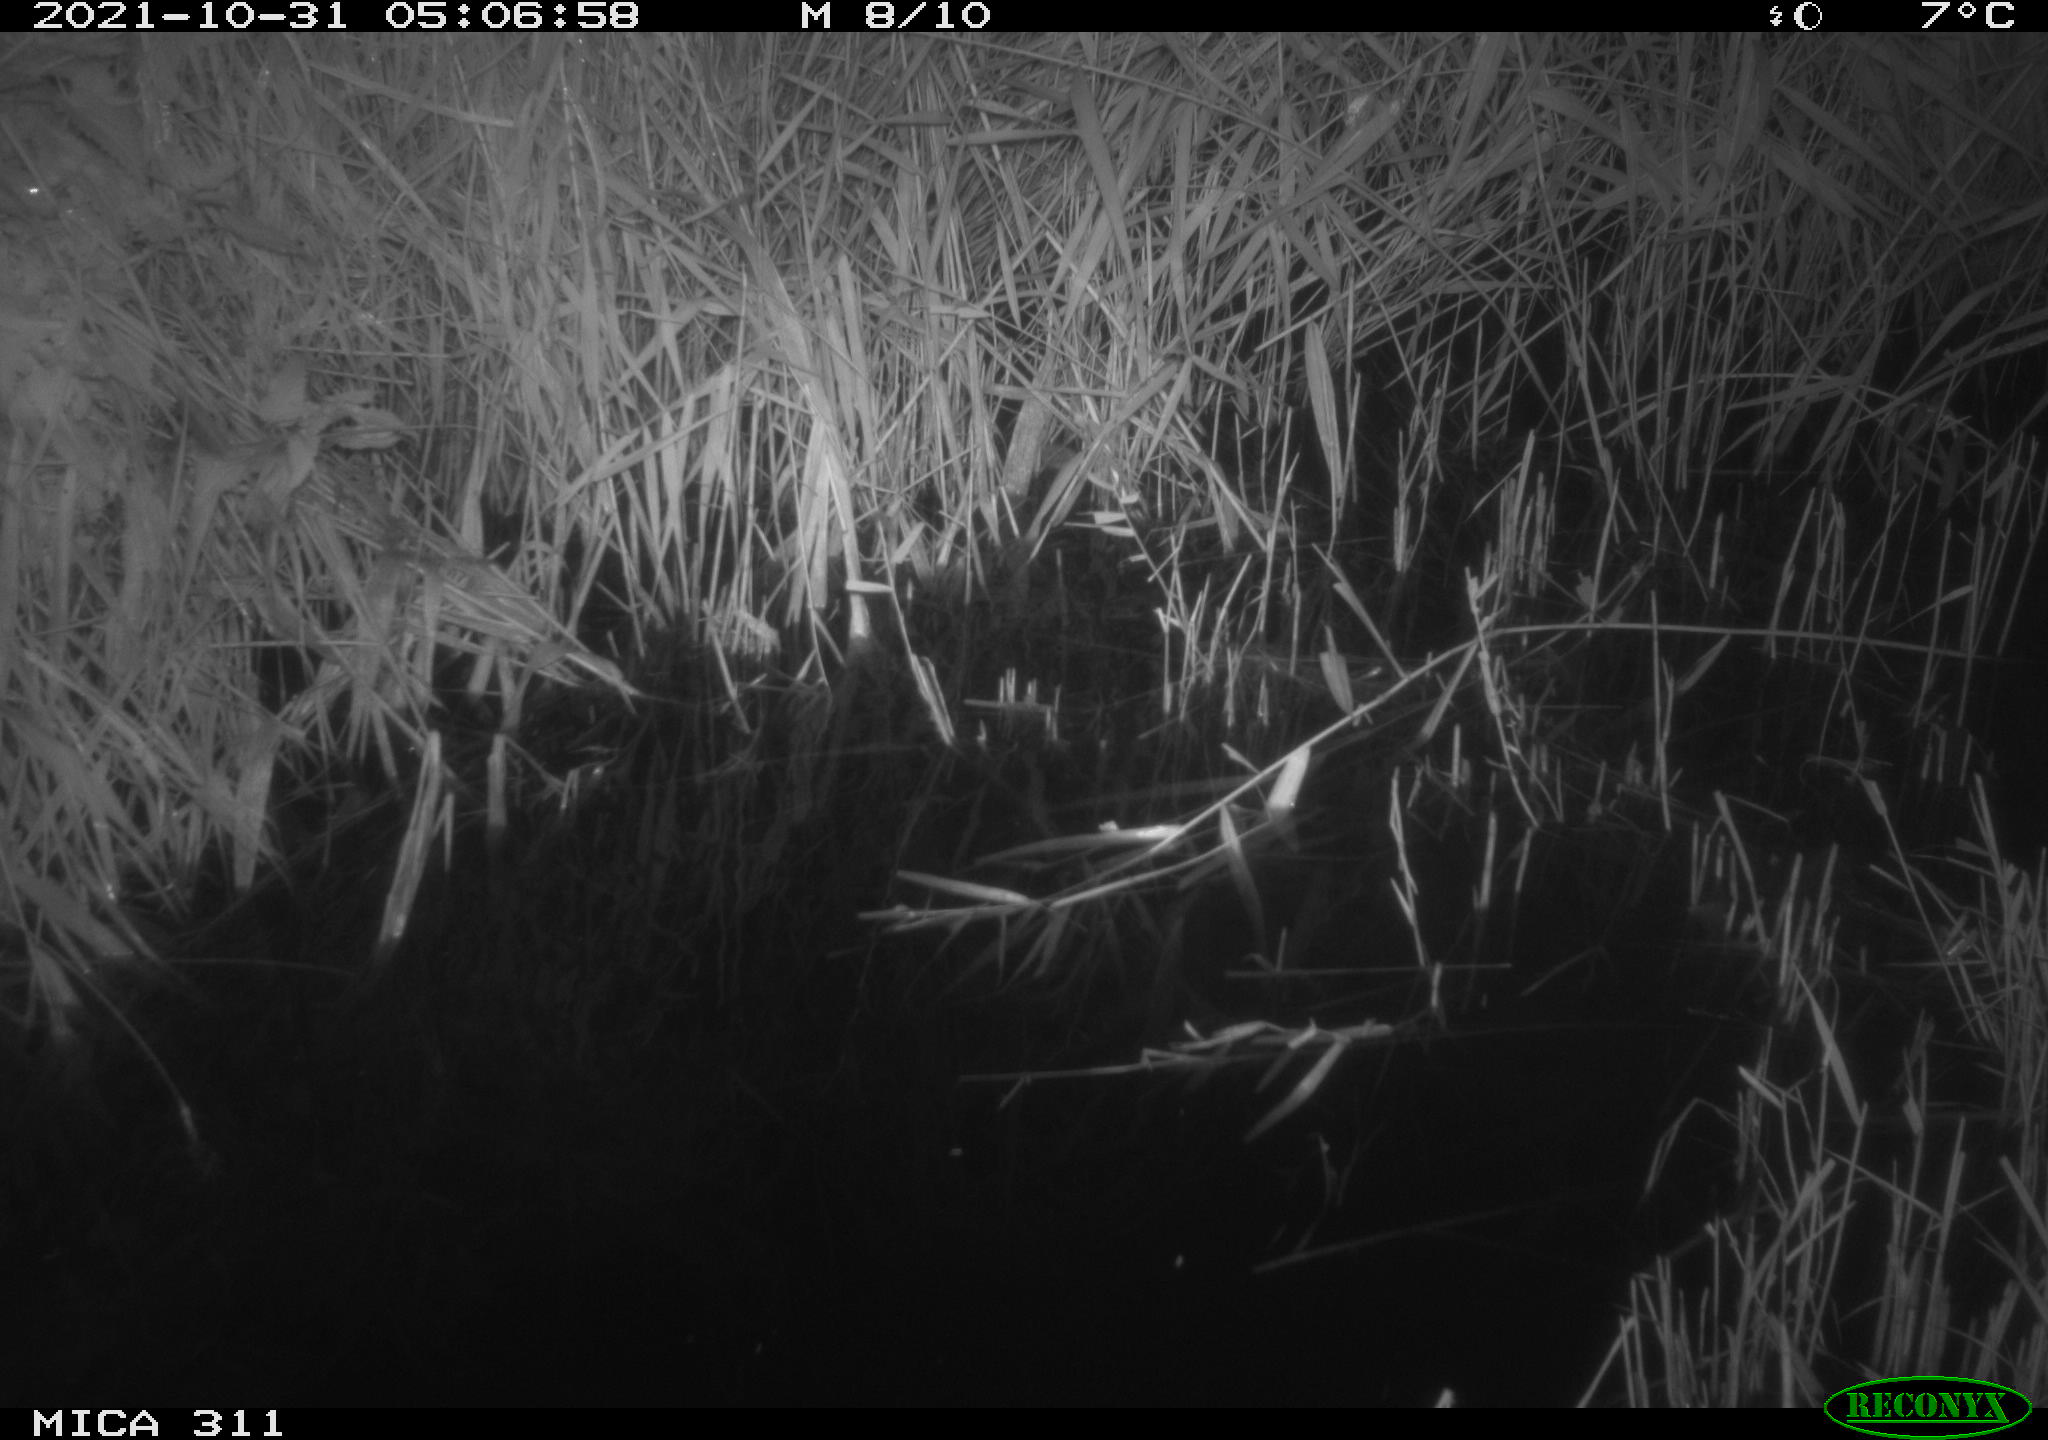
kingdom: Animalia
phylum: Chordata
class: Mammalia
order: Rodentia
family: Muridae
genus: Rattus
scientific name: Rattus norvegicus
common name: Brown rat
